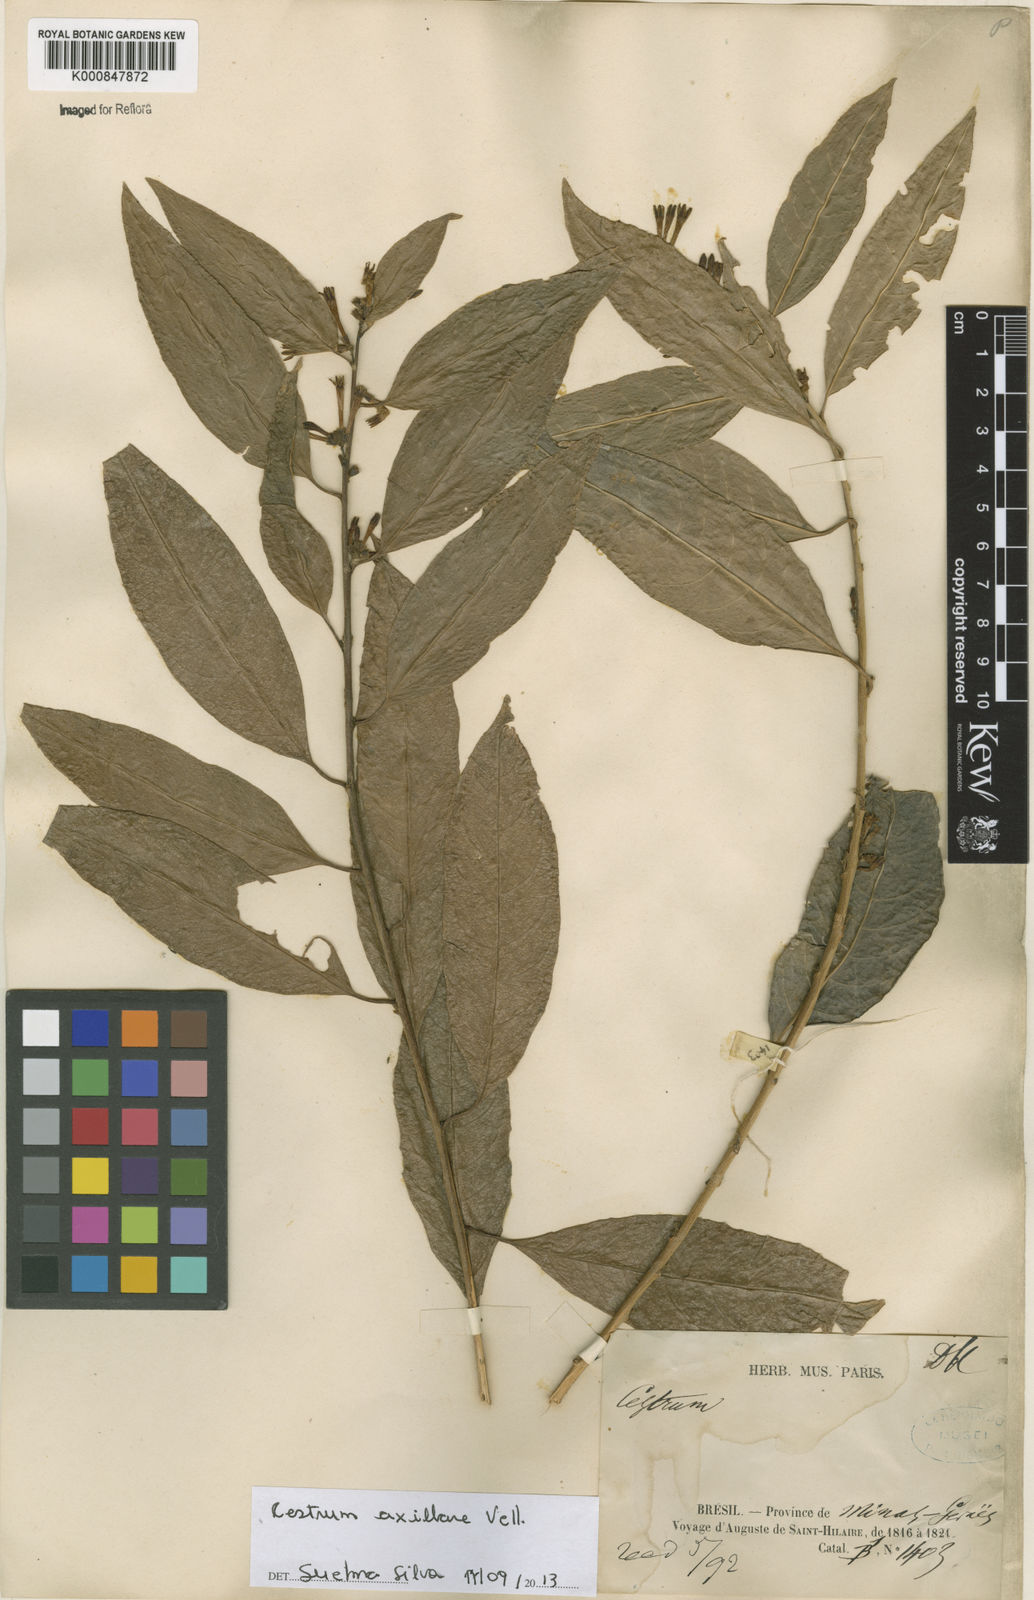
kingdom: Plantae
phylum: Tracheophyta
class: Magnoliopsida
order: Solanales
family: Solanaceae
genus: Cestrum
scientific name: Cestrum laevigatum
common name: Inkberry
